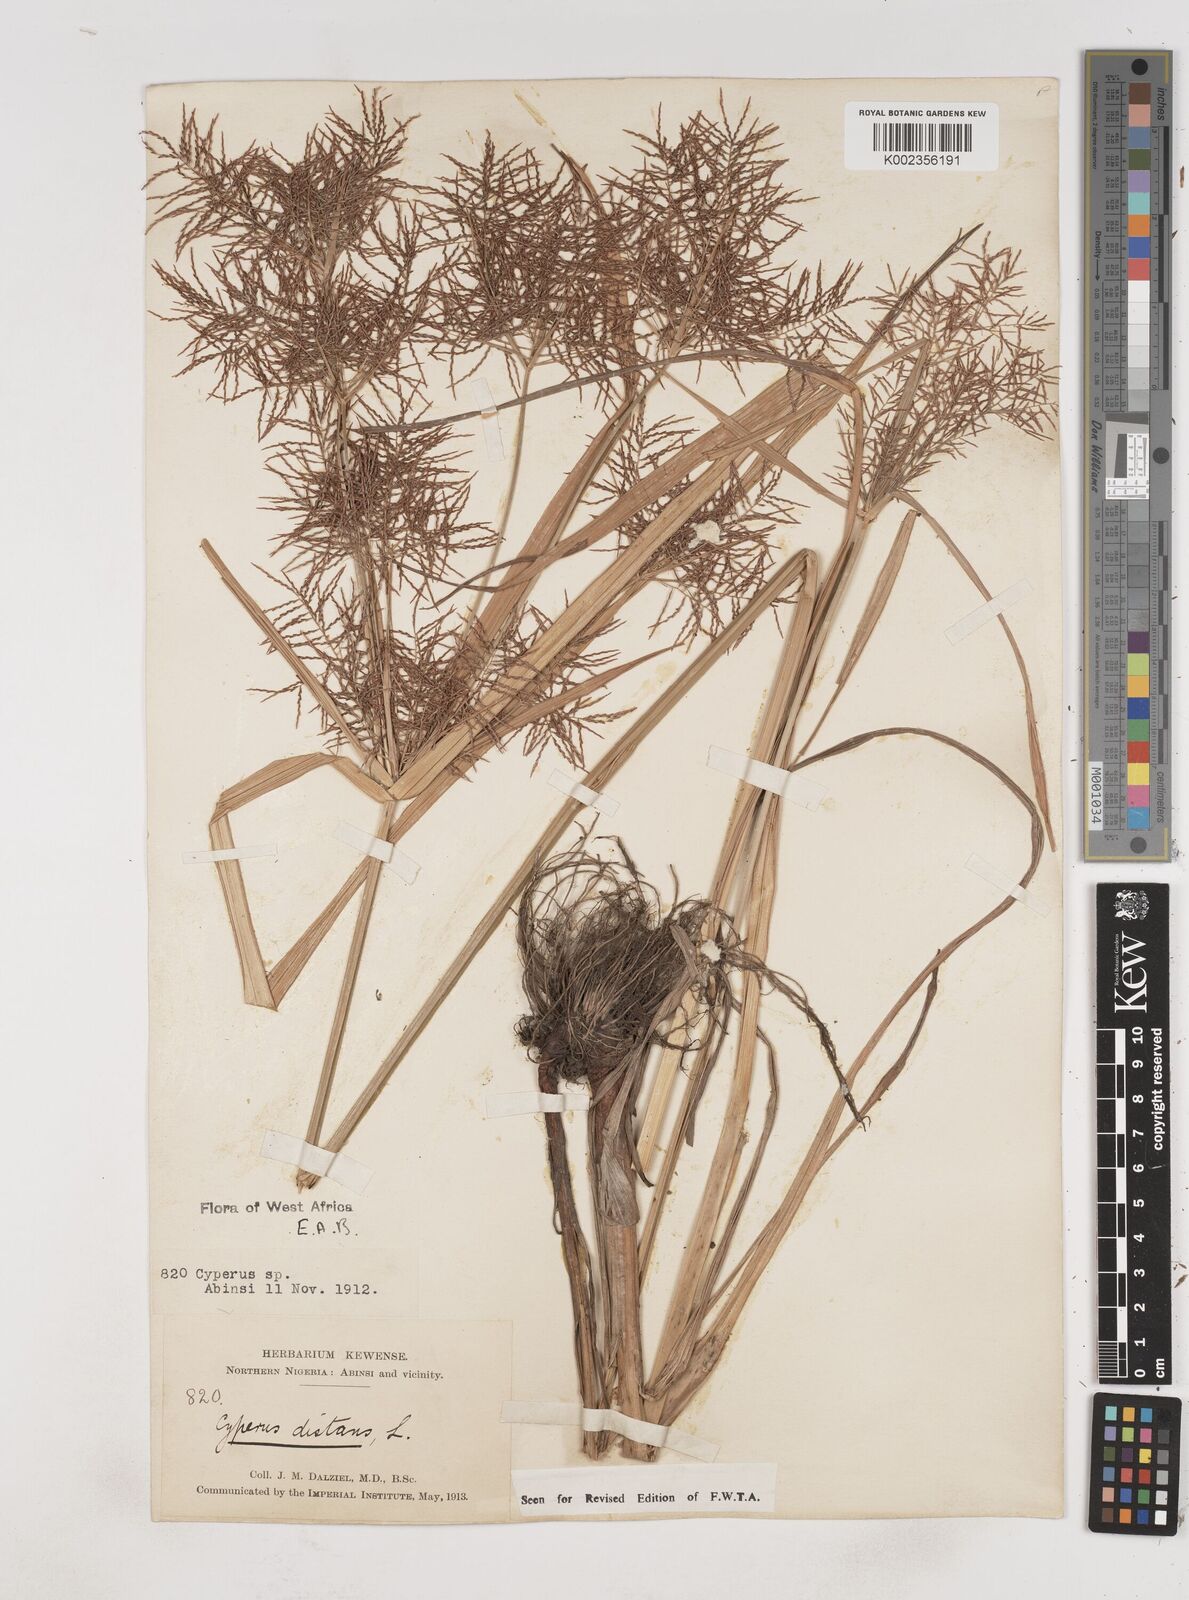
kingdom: Plantae
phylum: Tracheophyta
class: Liliopsida
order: Poales
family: Cyperaceae
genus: Cyperus
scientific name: Cyperus distans
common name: Slender cyperus
